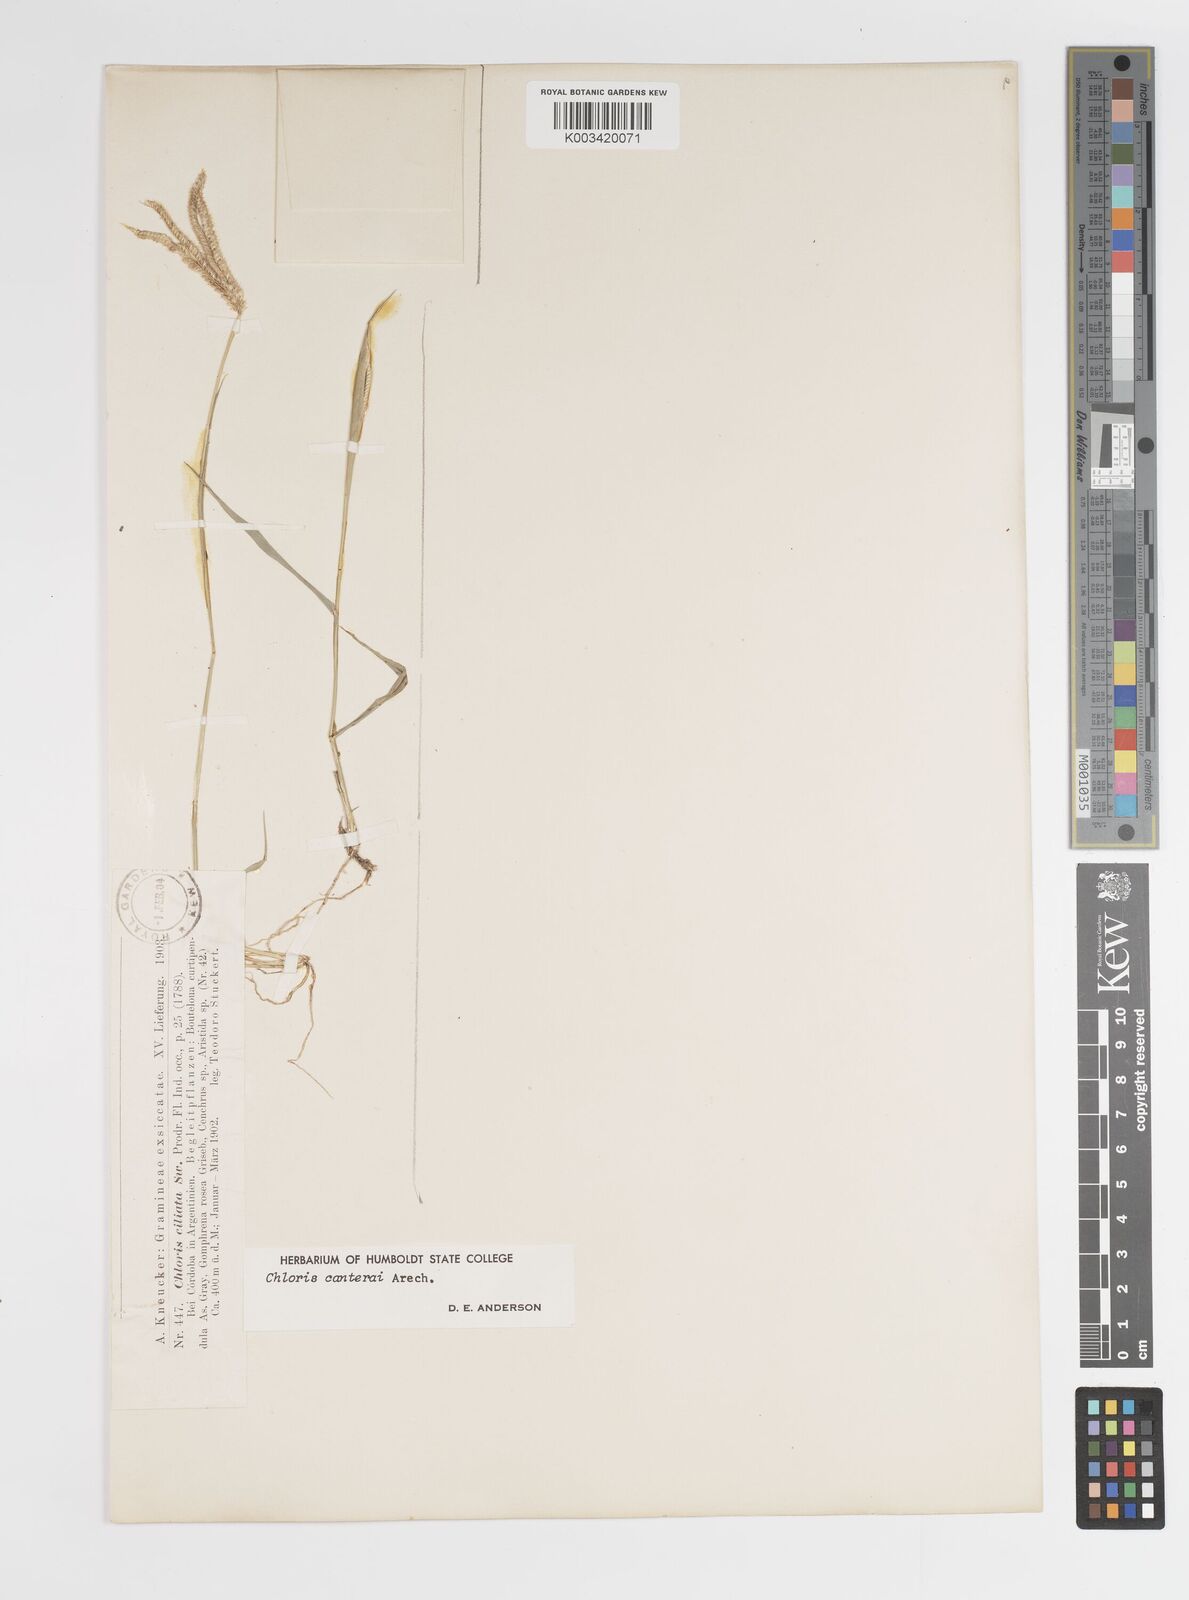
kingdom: Plantae
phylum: Tracheophyta
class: Liliopsida
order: Poales
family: Poaceae
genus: Stapfochloa
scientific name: Stapfochloa canterae
